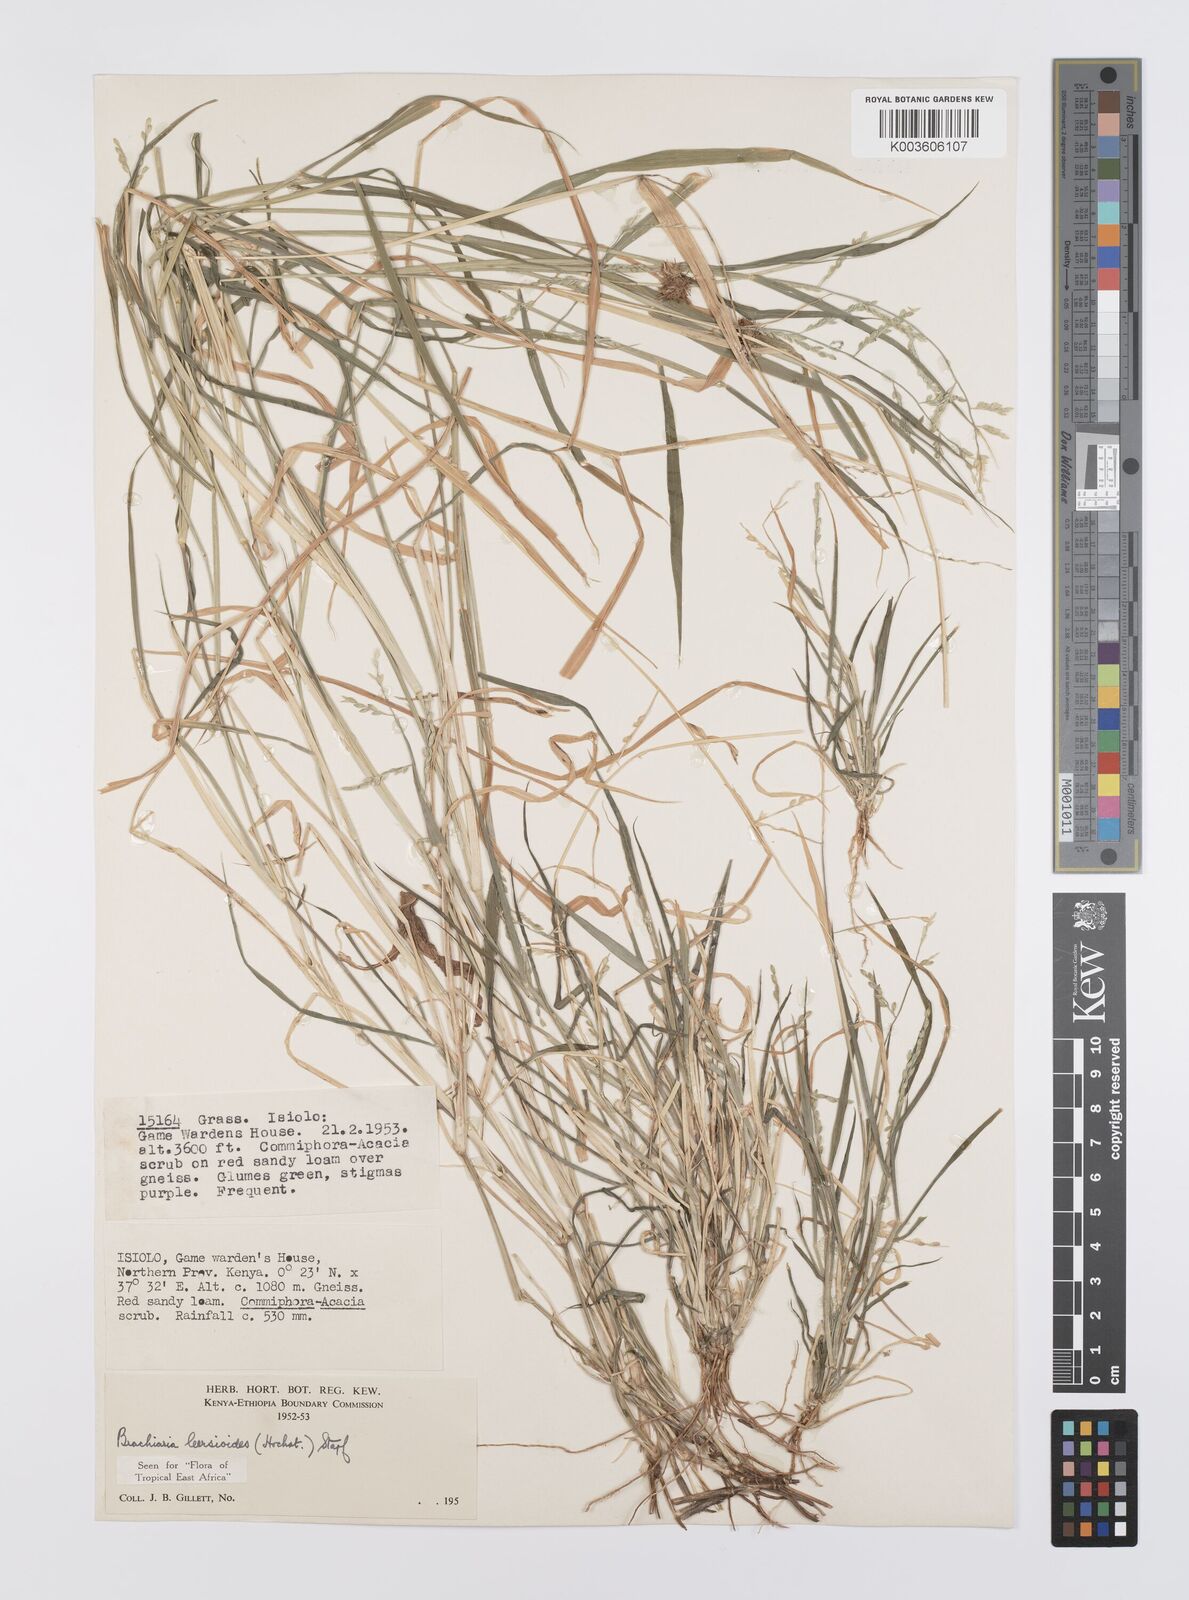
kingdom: Plantae
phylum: Tracheophyta
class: Liliopsida
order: Poales
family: Poaceae
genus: Urochloa
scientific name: Urochloa leersioides
